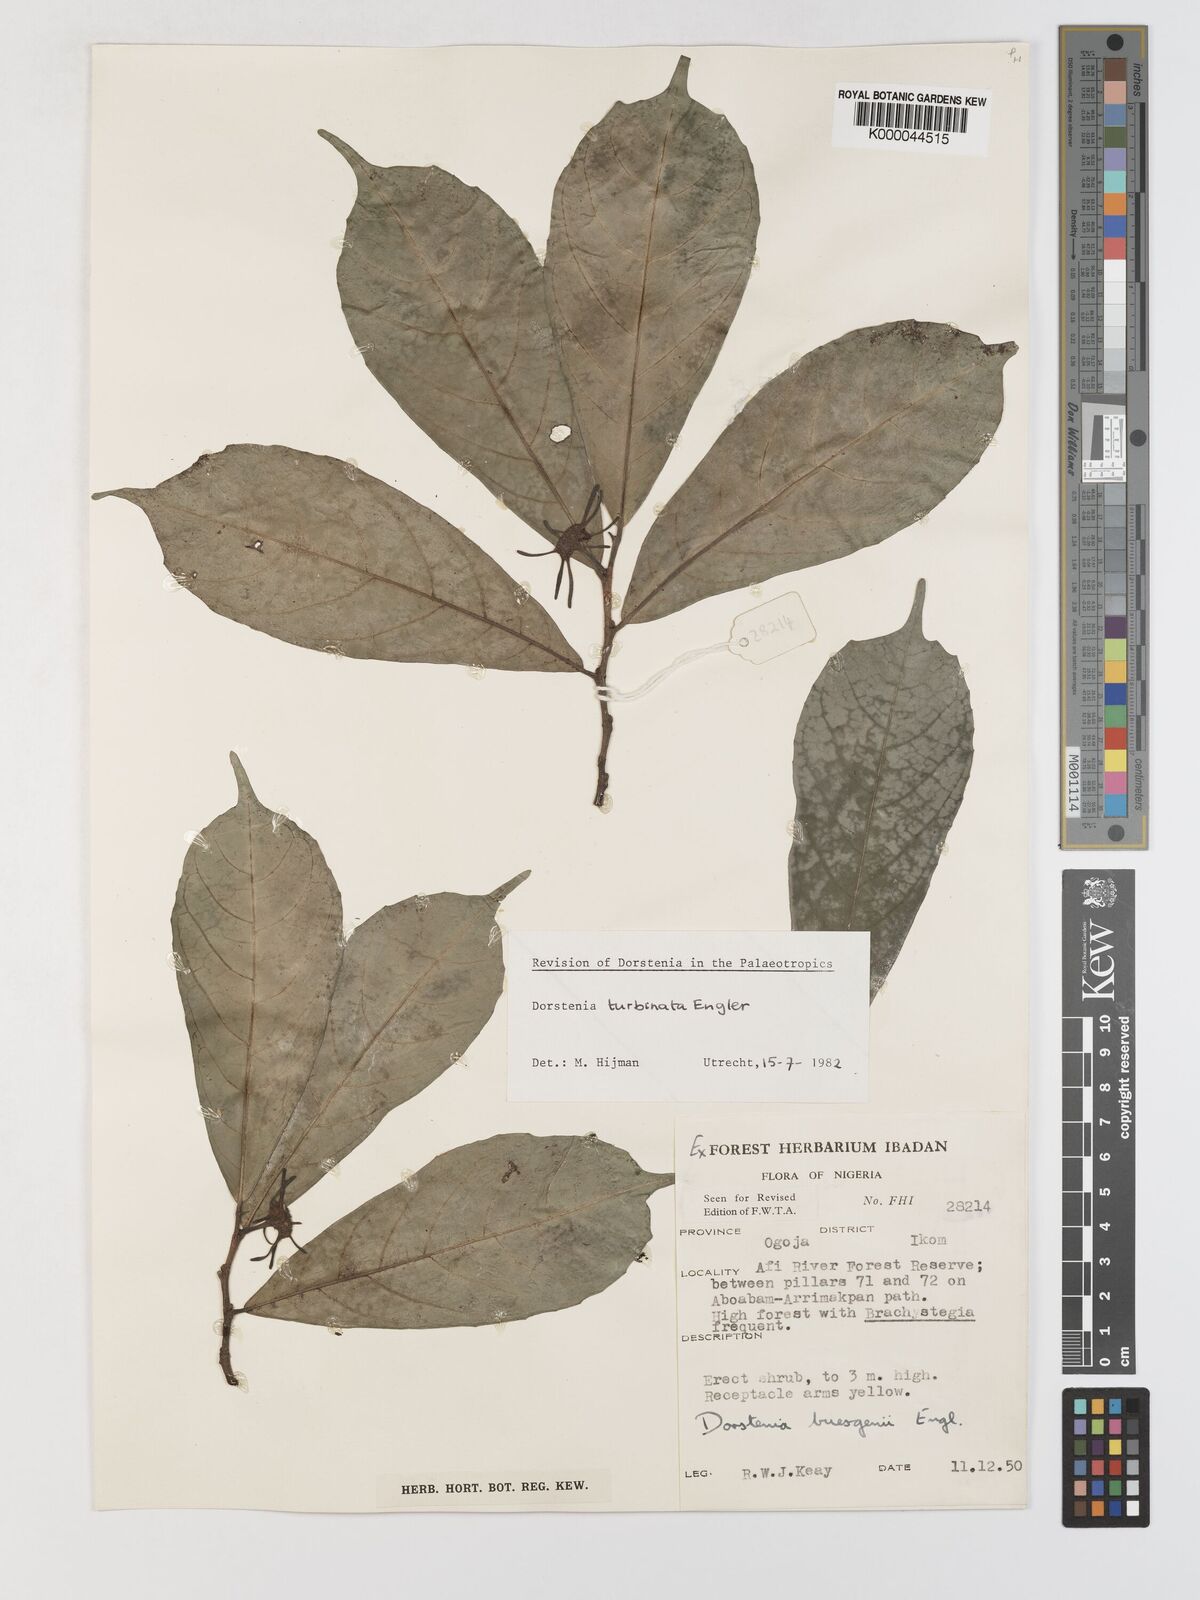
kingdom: Plantae
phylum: Tracheophyta
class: Magnoliopsida
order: Rosales
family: Moraceae
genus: Hijmania
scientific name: Hijmania turbinata
